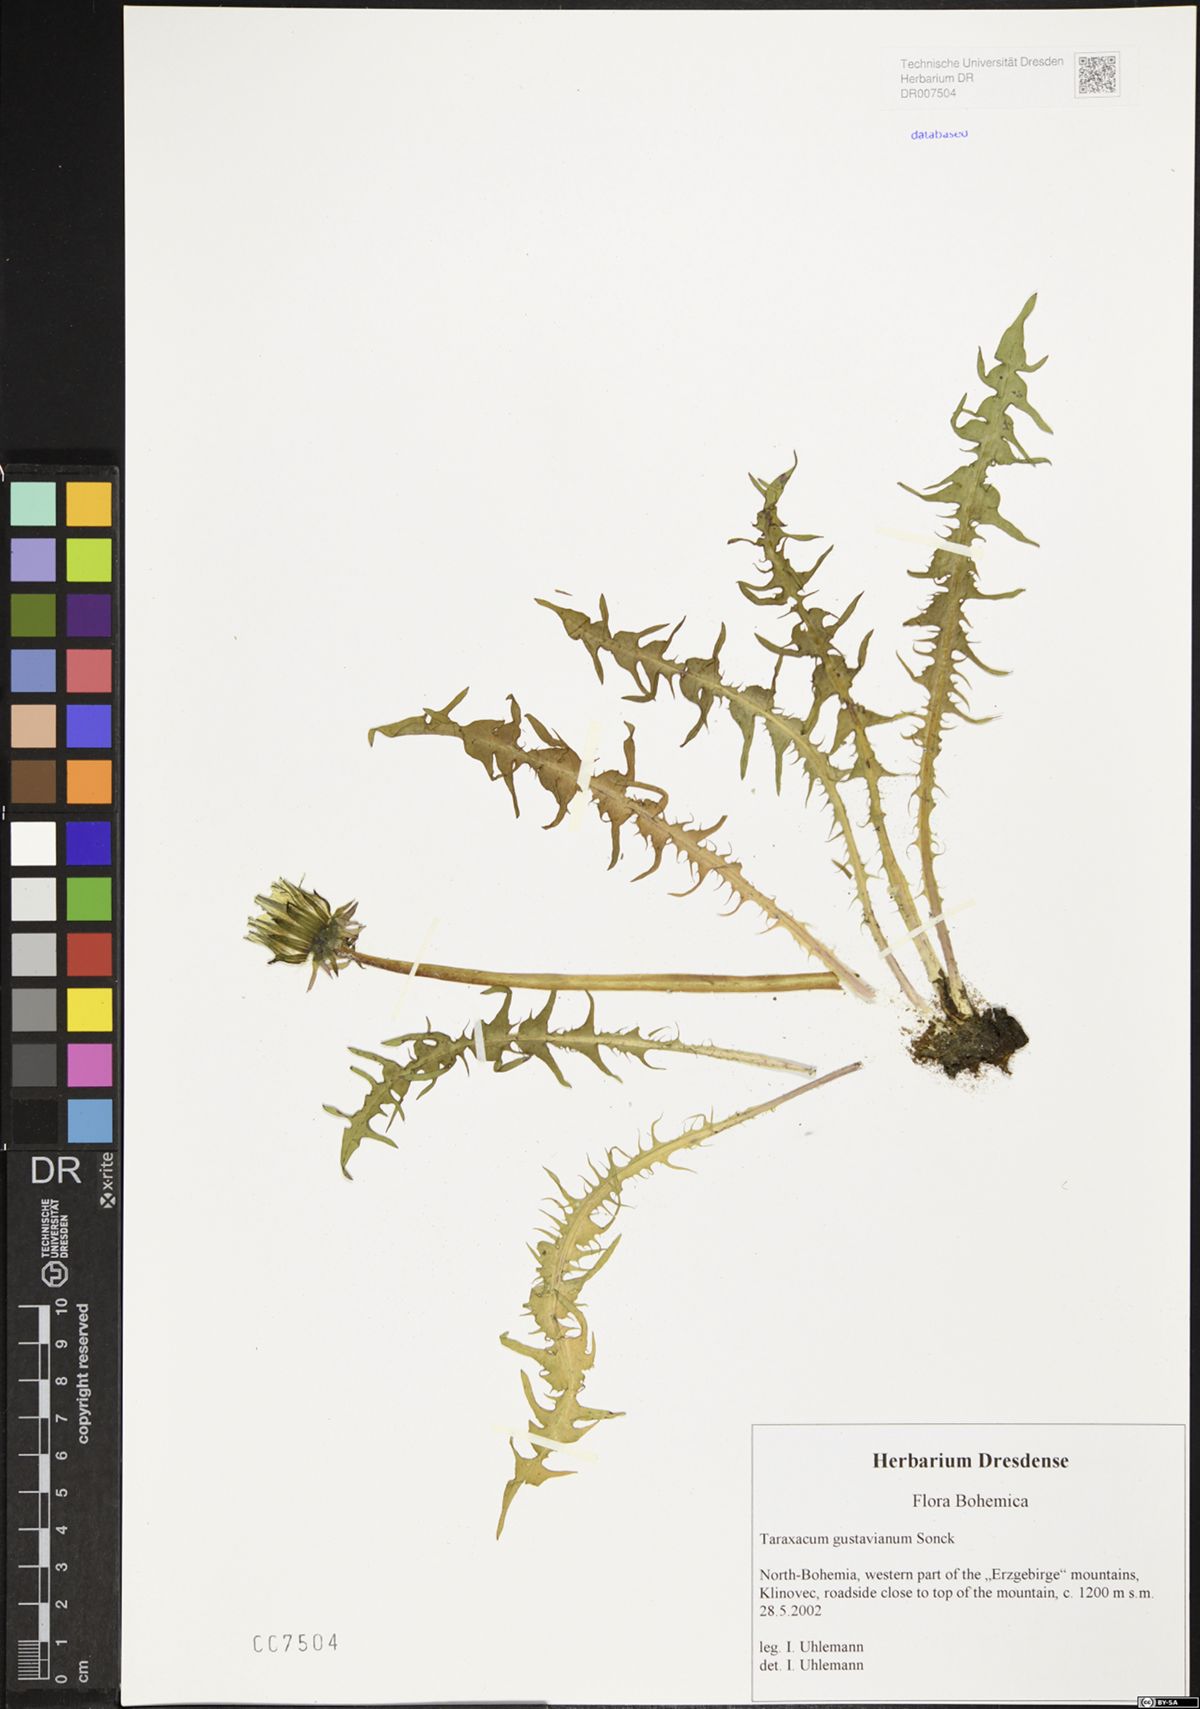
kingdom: Plantae
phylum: Tracheophyta
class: Magnoliopsida
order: Asterales
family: Asteraceae
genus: Taraxacum
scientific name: Taraxacum gustavianum
